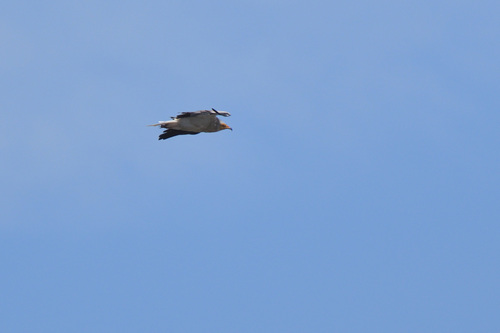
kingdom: Animalia
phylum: Chordata
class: Aves
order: Accipitriformes
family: Accipitridae
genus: Neophron
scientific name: Neophron percnopterus
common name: Egyptian vulture
